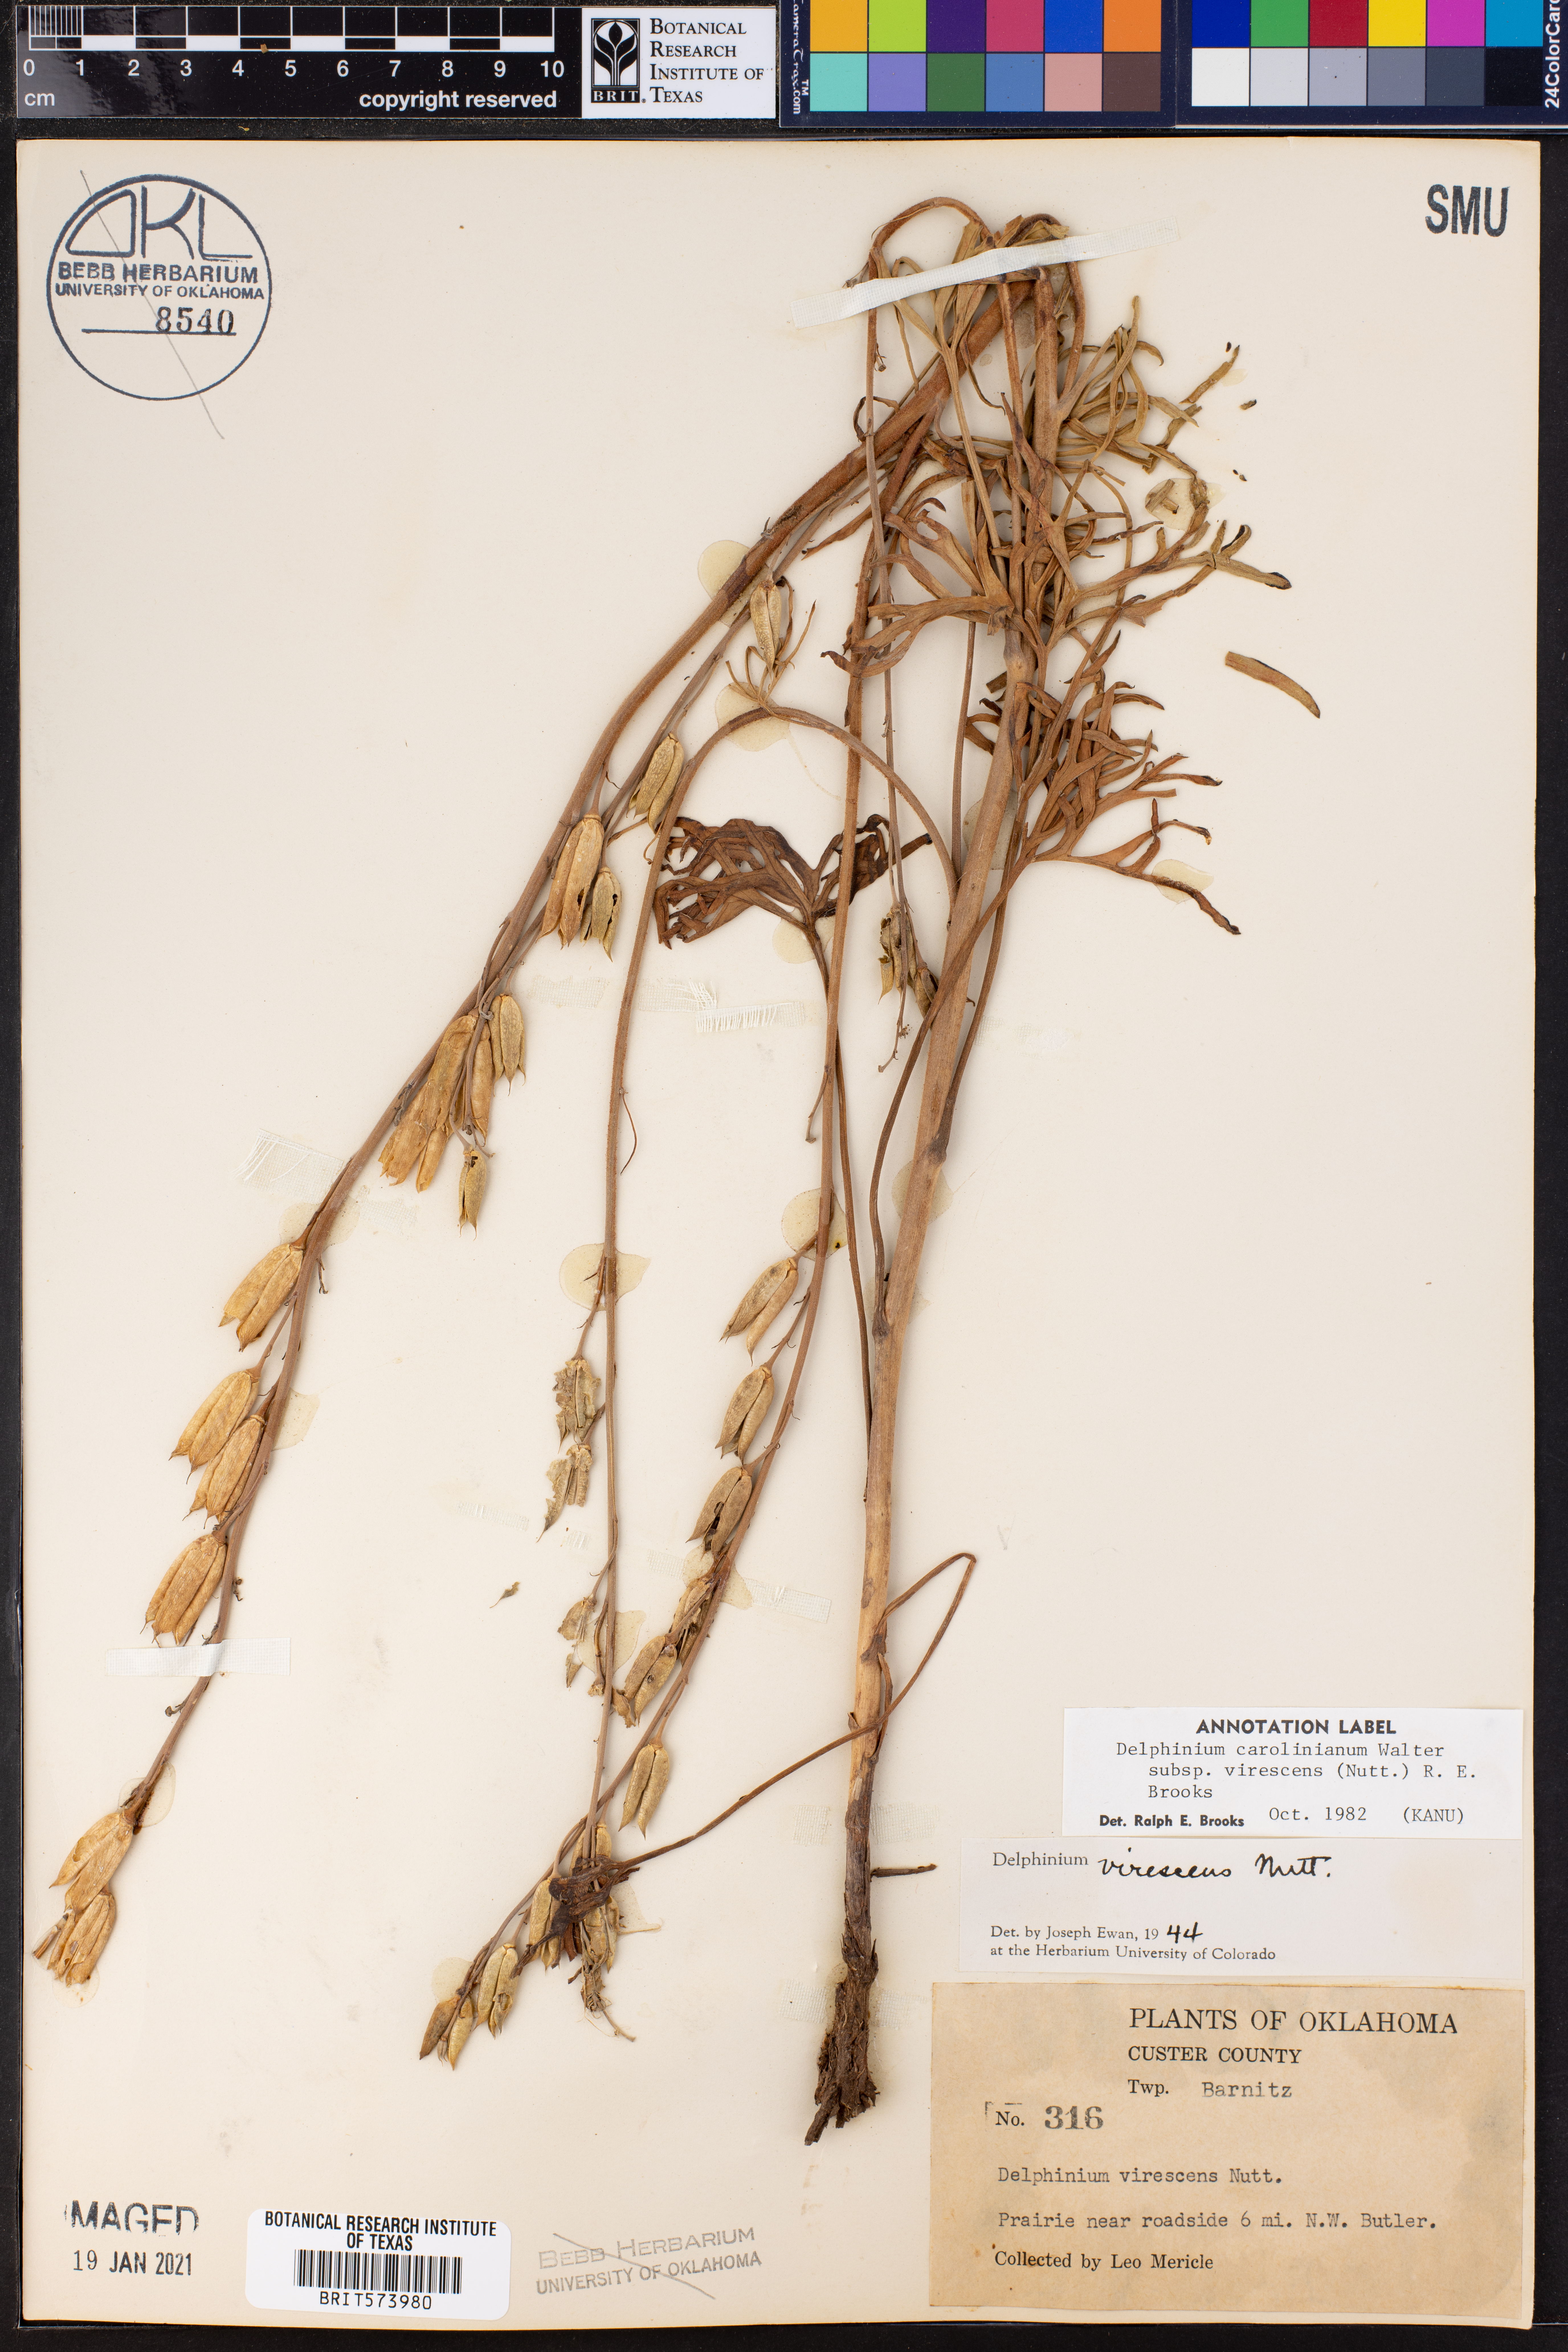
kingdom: Plantae
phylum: Tracheophyta
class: Magnoliopsida
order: Ranunculales
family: Ranunculaceae
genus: Delphinium
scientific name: Delphinium carolinianum
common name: Carolina larkspur
